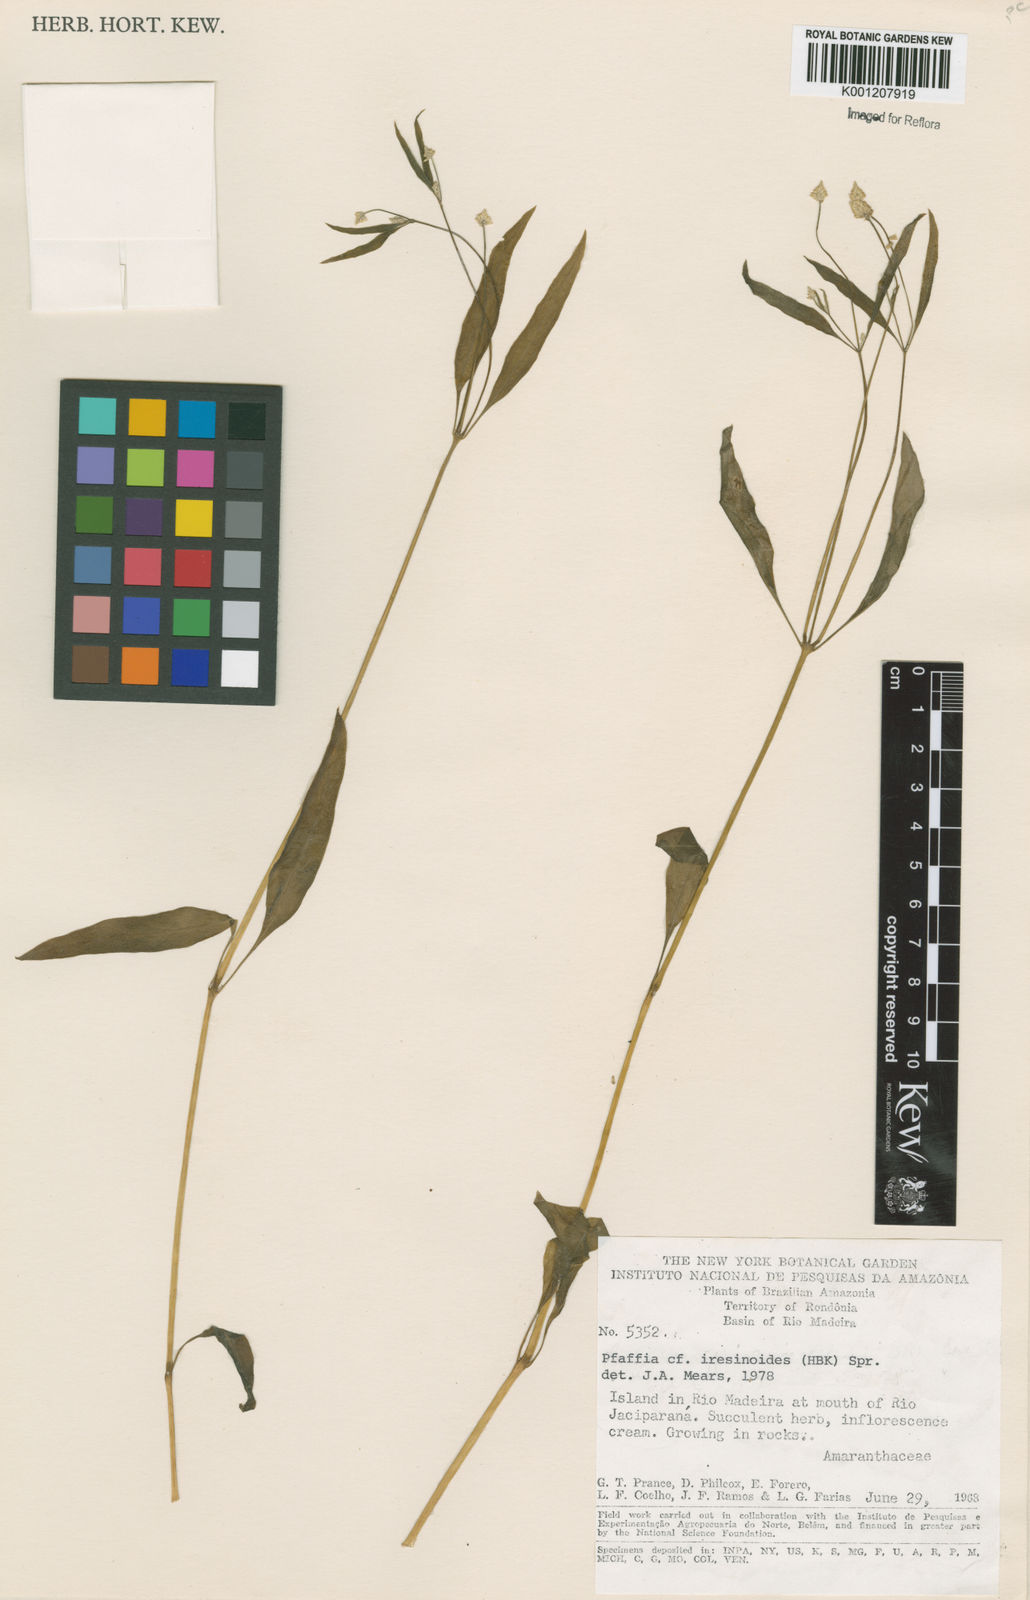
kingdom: Plantae
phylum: Tracheophyta
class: Magnoliopsida
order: Caryophyllales
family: Amaranthaceae
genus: Pfaffia
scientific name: Pfaffia iresinoides
